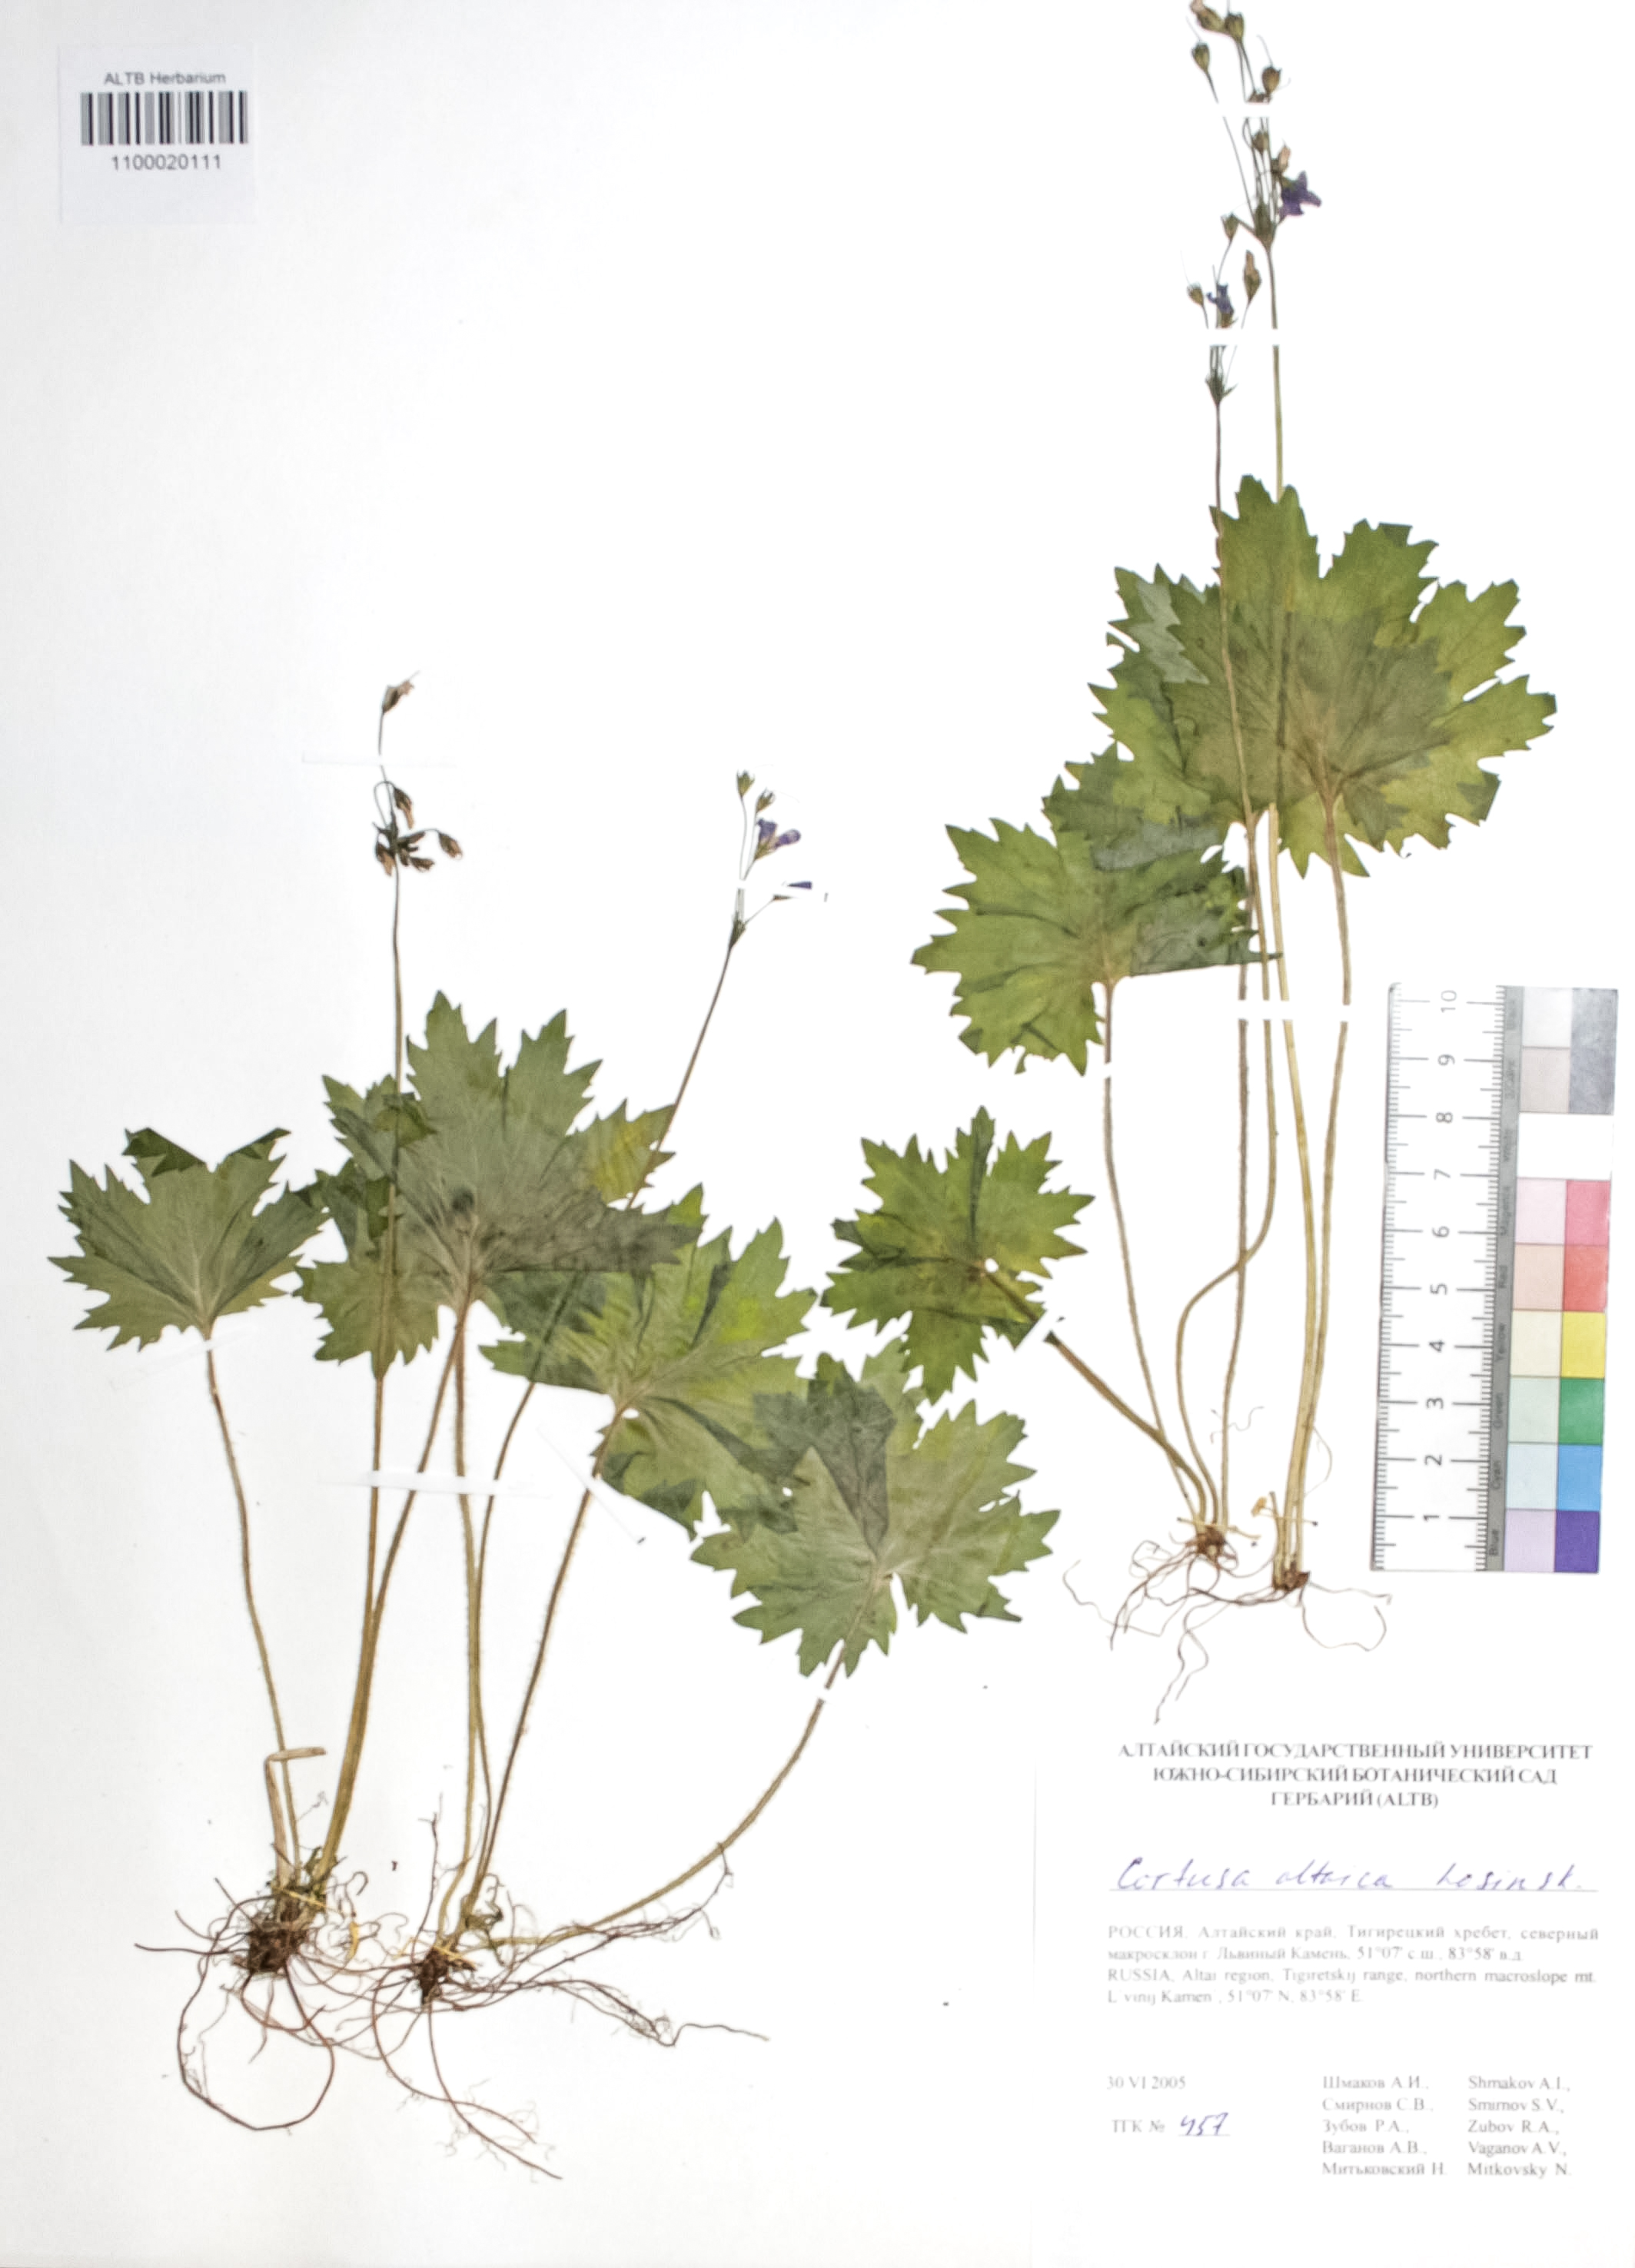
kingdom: Plantae
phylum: Tracheophyta
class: Magnoliopsida
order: Ericales
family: Primulaceae
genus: Primula
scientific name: Primula matthioli
